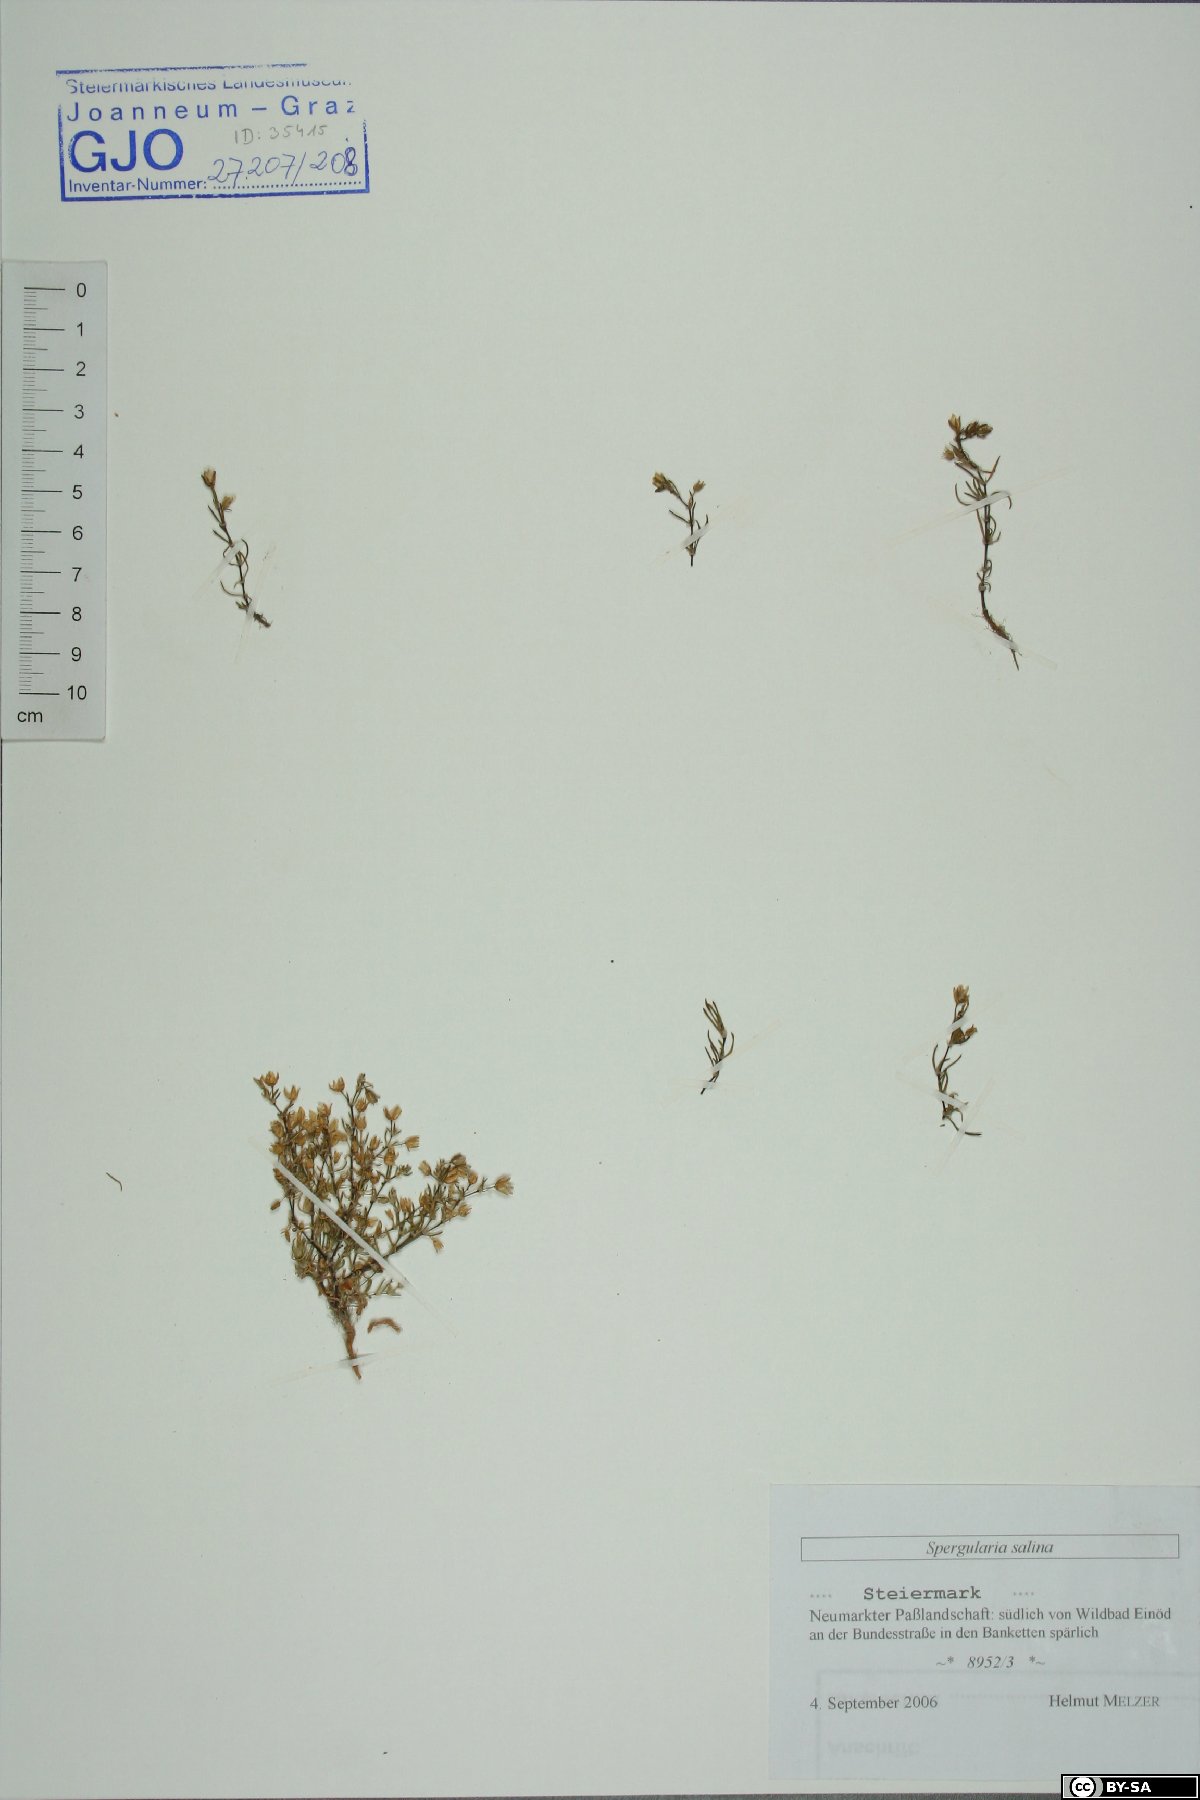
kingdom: Plantae
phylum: Tracheophyta
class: Magnoliopsida
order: Caryophyllales
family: Caryophyllaceae
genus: Spergularia
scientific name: Spergularia marina
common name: Lesser sea-spurrey
